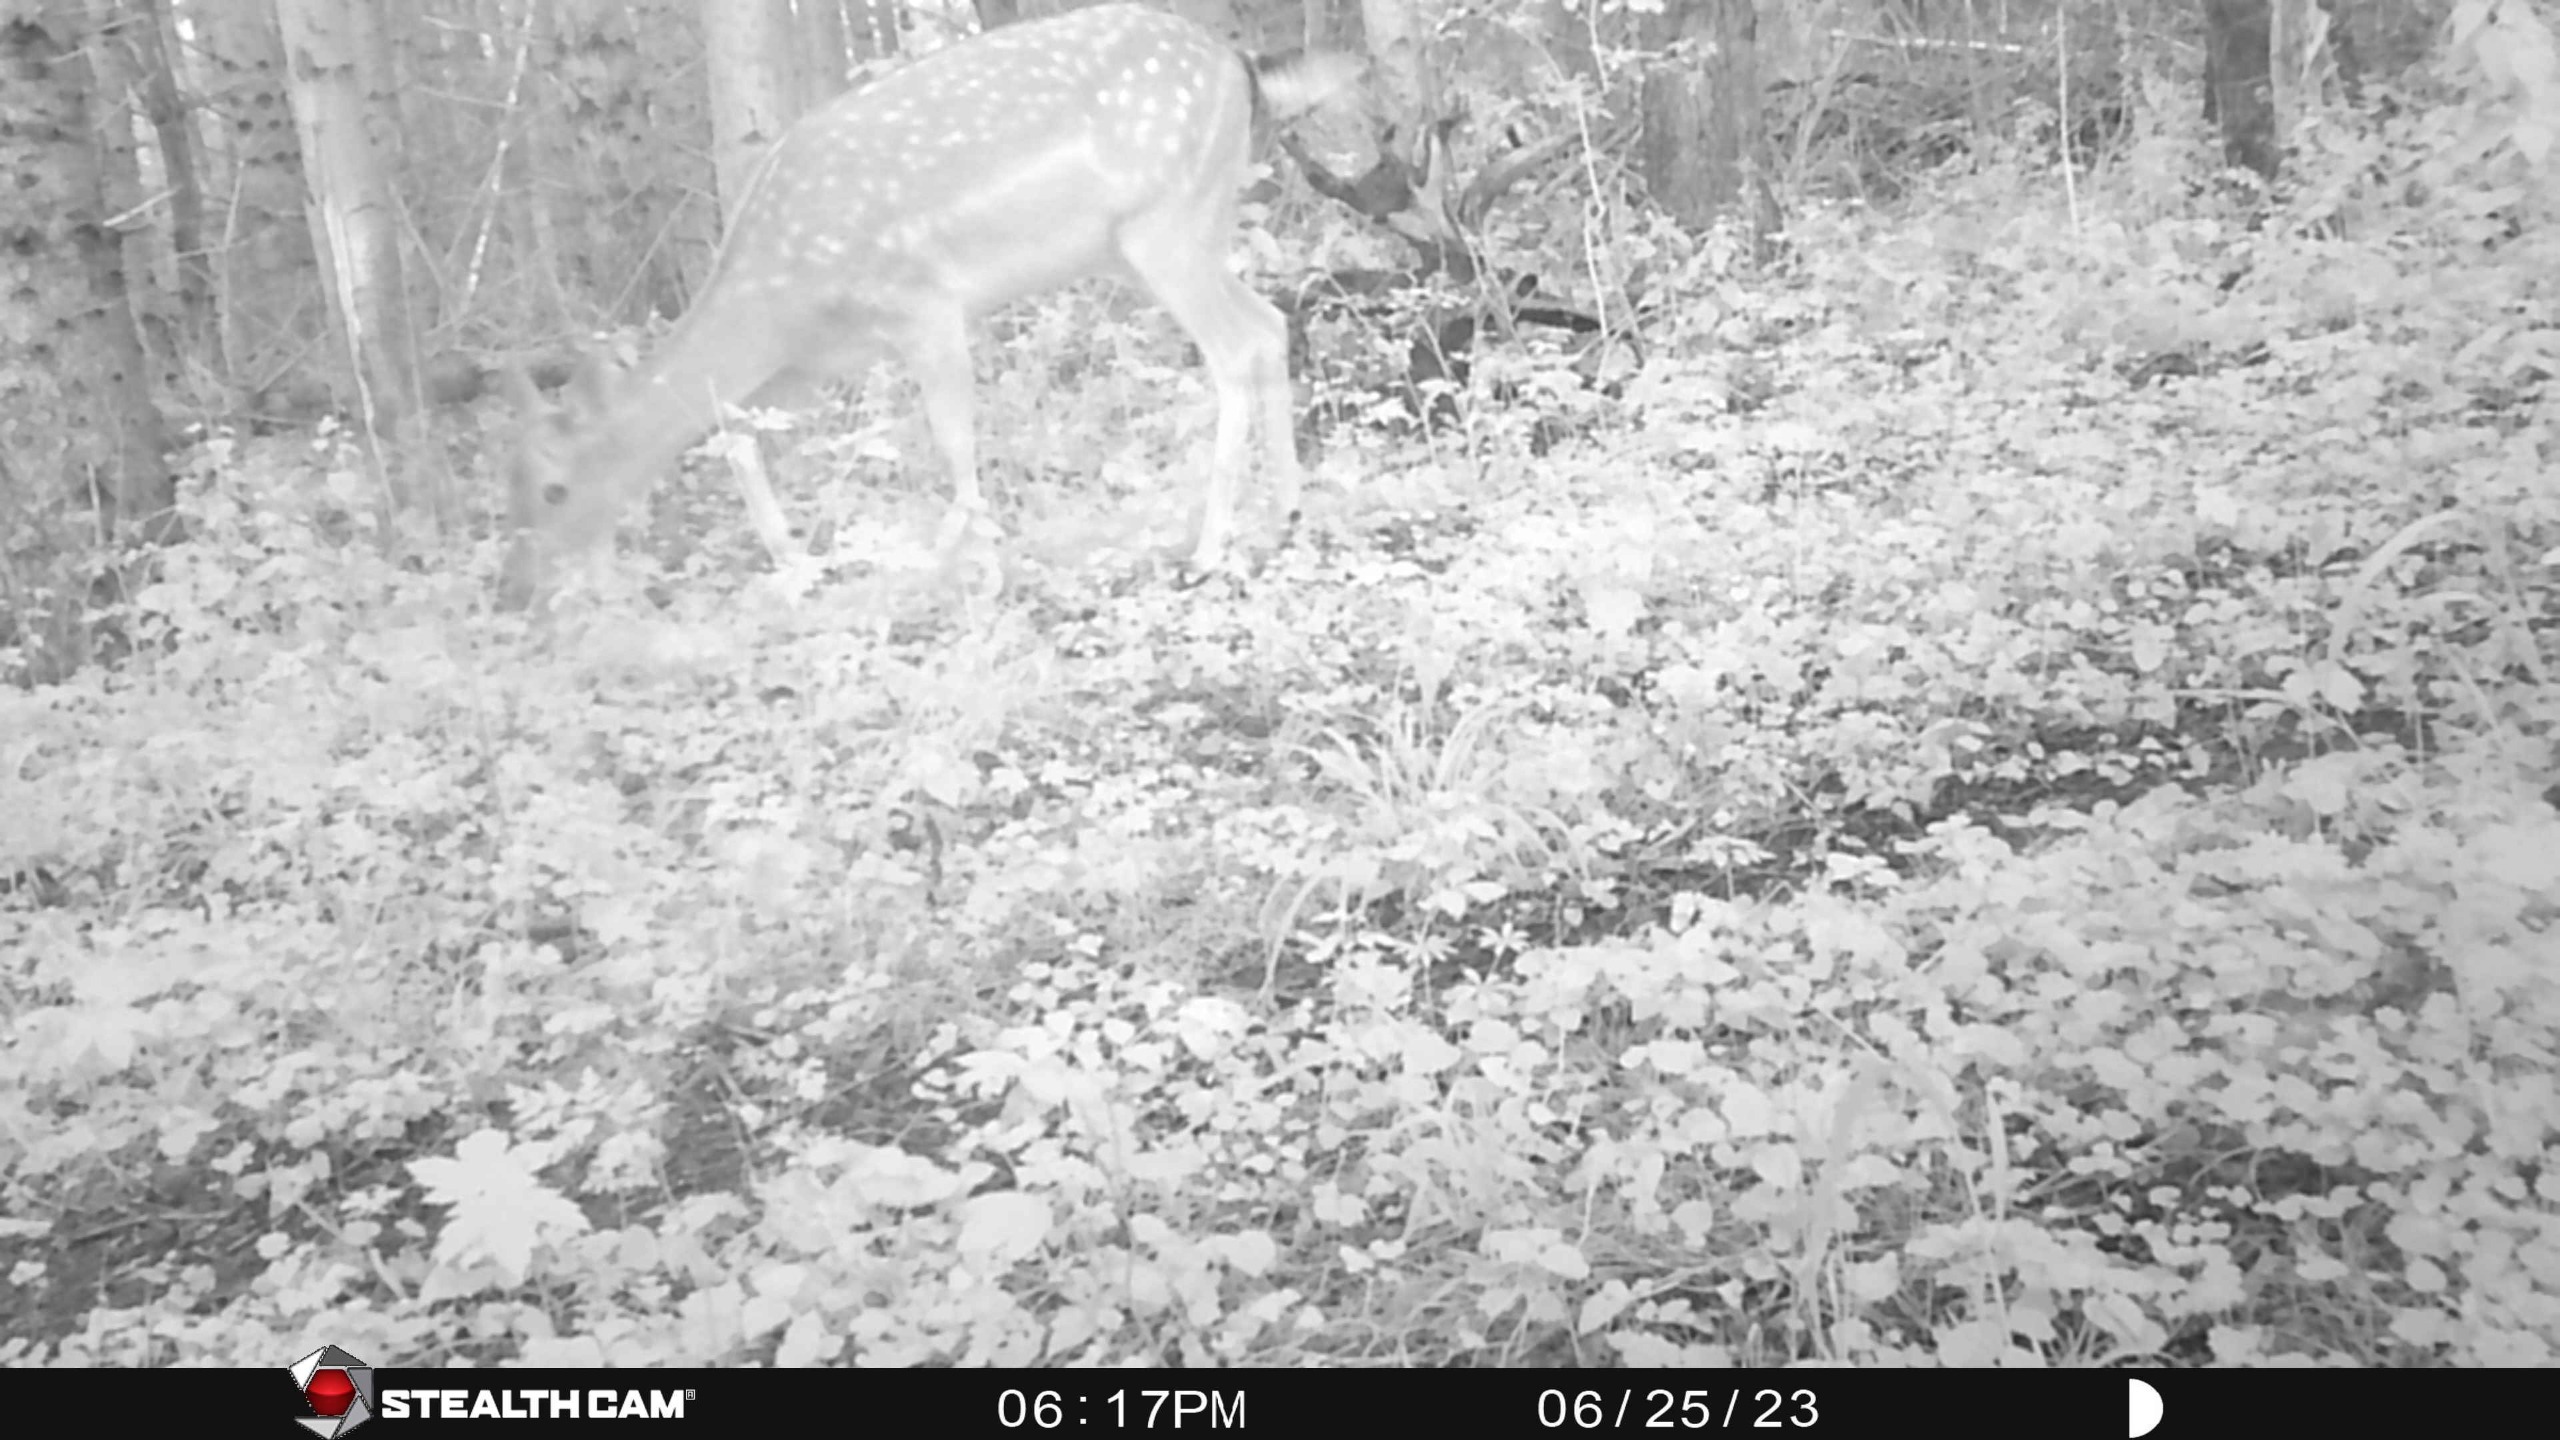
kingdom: Animalia
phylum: Chordata
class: Mammalia
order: Artiodactyla
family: Cervidae
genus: Dama
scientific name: Dama dama
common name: Dådyr
